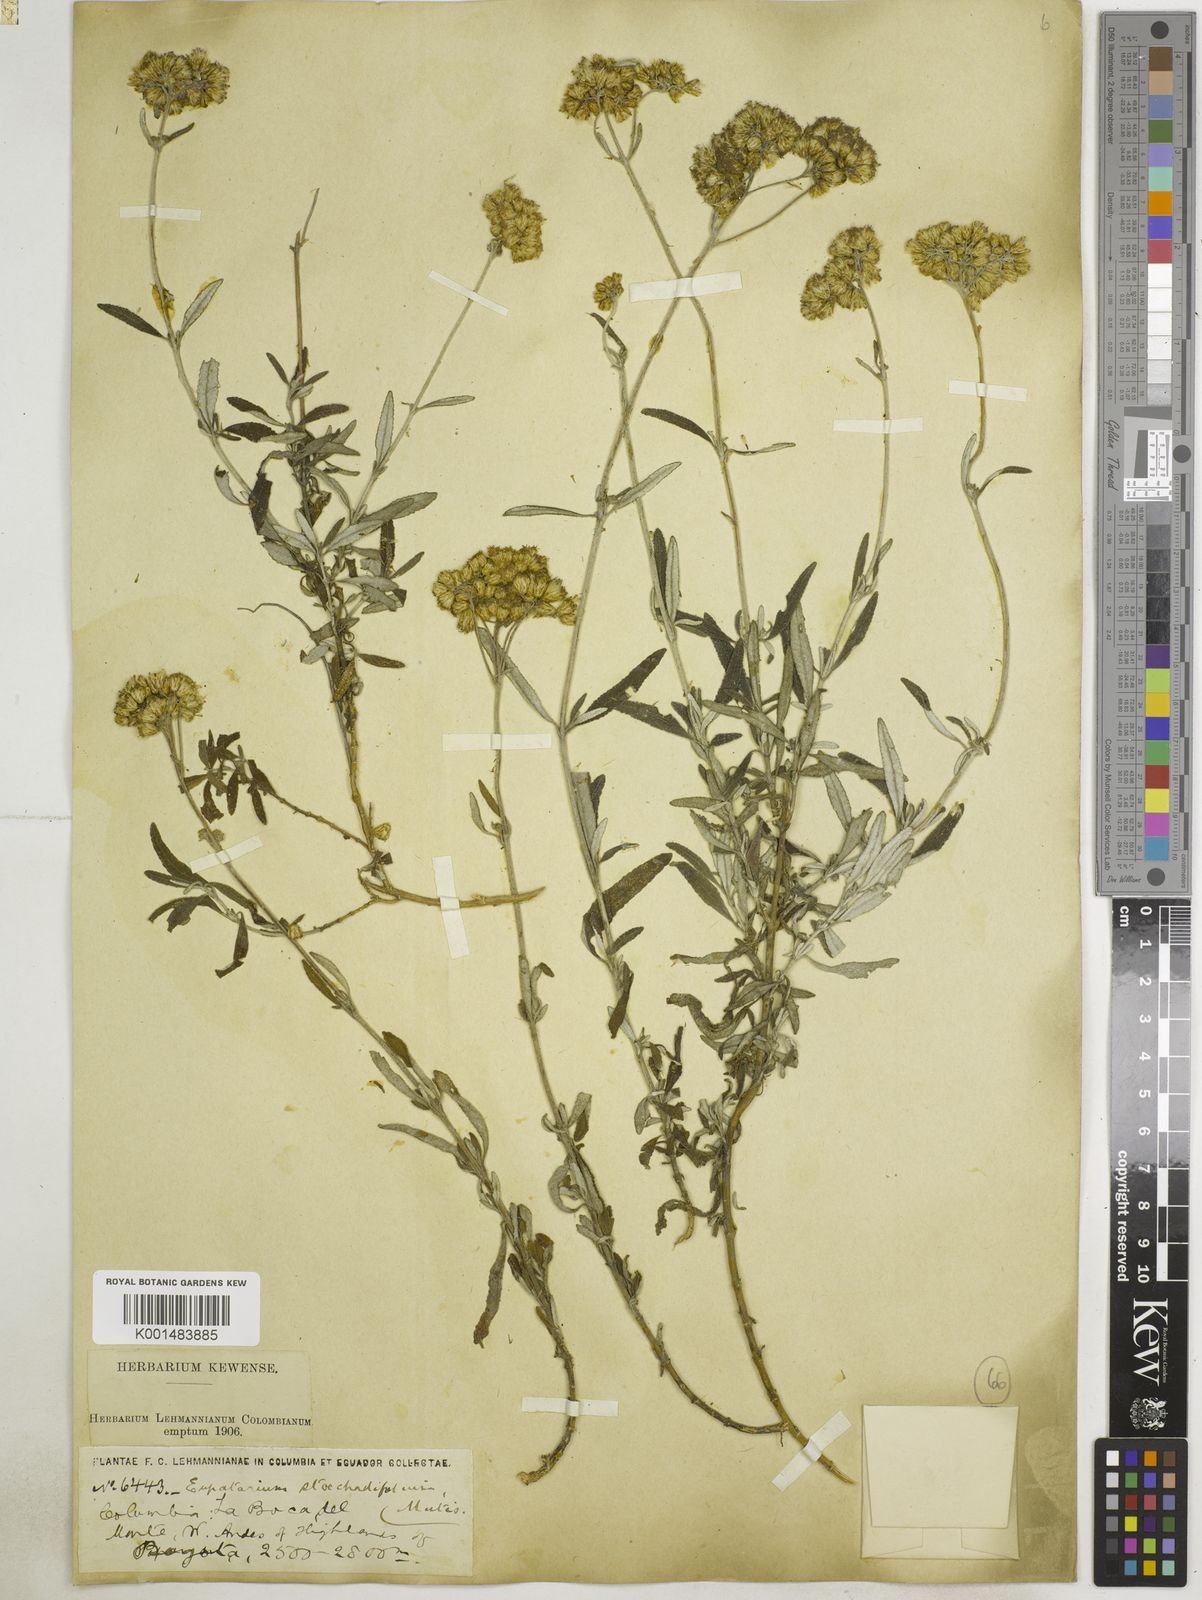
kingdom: Plantae
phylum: Tracheophyta
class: Magnoliopsida
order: Asterales
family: Asteraceae
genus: Lourteigia
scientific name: Lourteigia stoechadifolia
